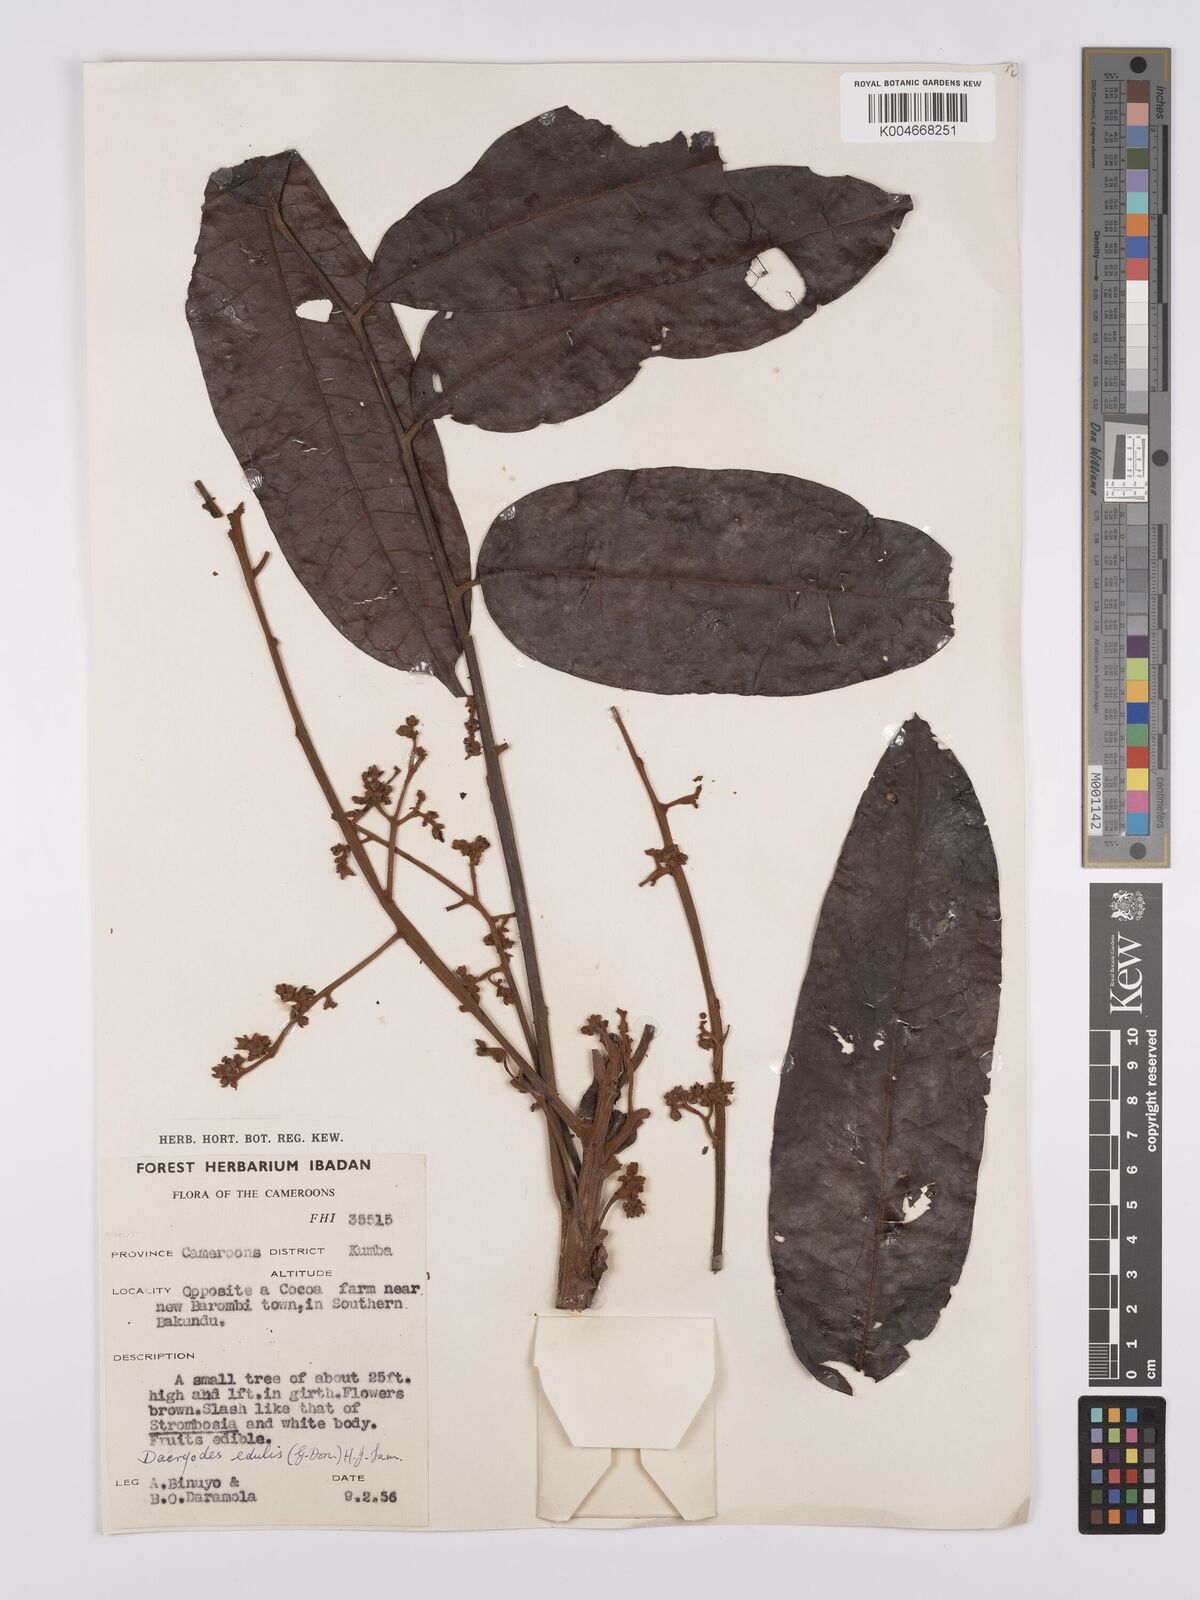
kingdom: Plantae
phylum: Tracheophyta
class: Magnoliopsida
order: Sapindales
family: Burseraceae
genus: Pachylobus
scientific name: Pachylobus edulis
